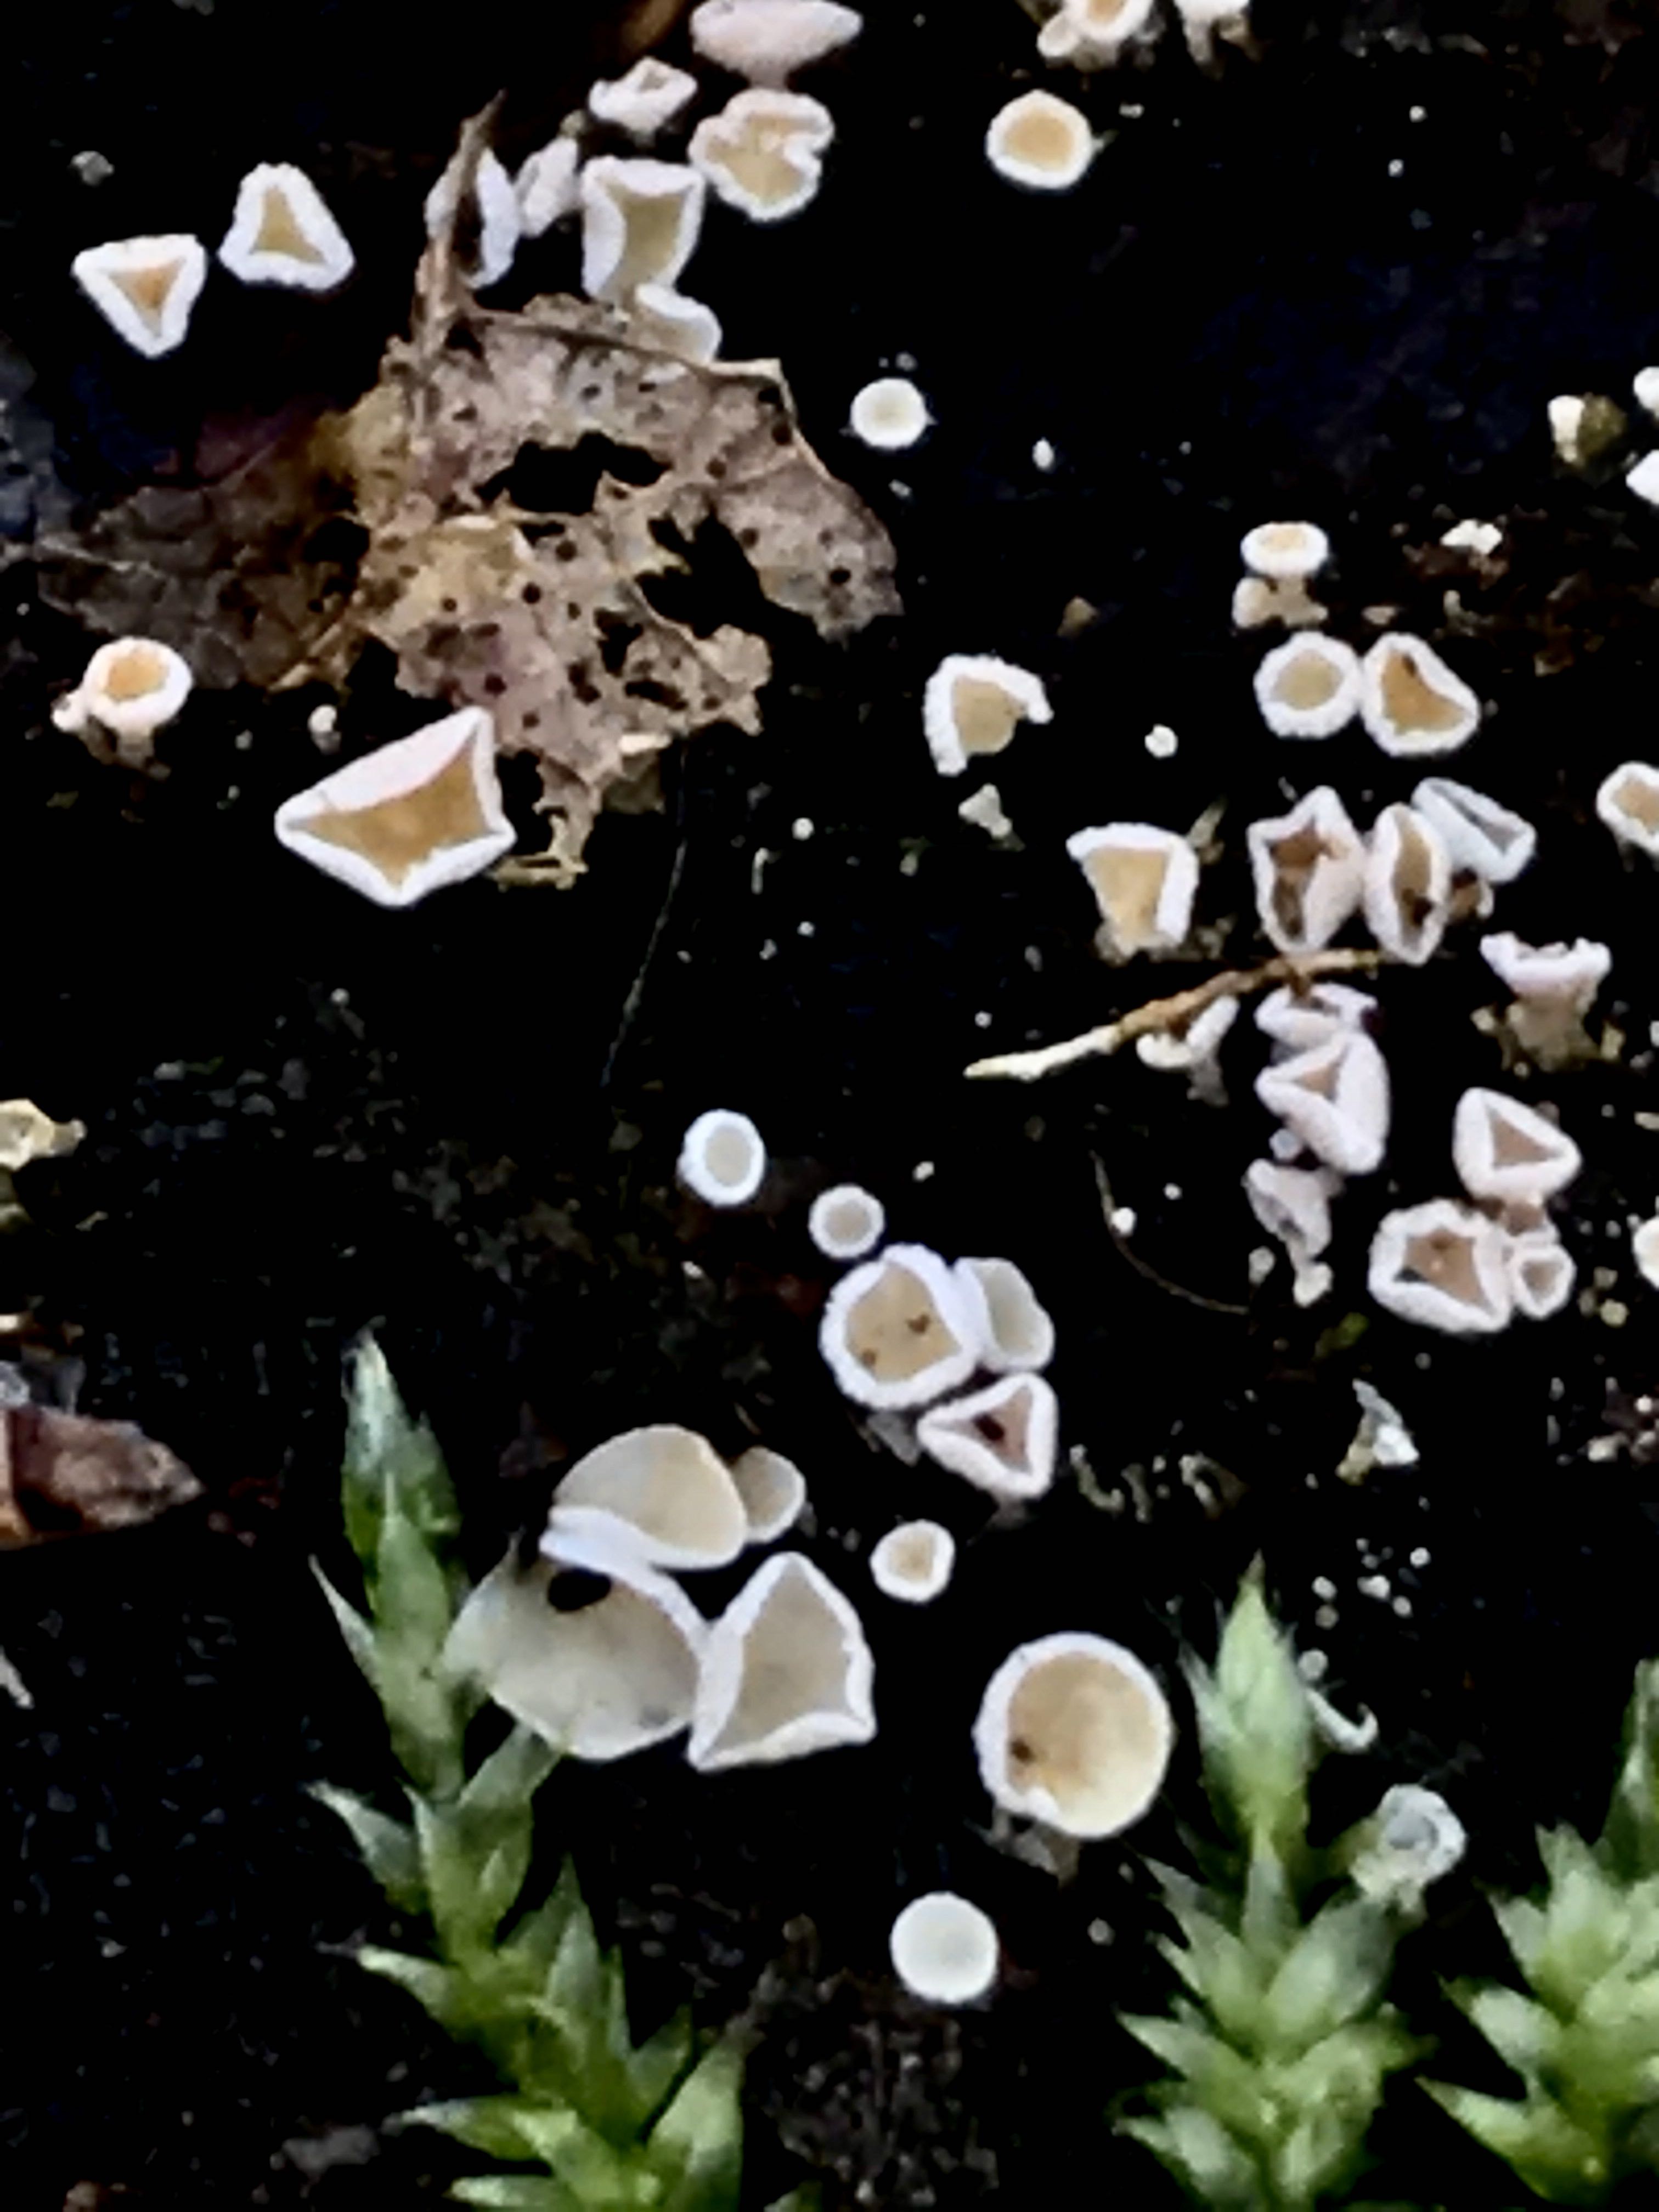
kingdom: Fungi
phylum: Ascomycota
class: Leotiomycetes
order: Helotiales
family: Lachnaceae
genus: Lachnum
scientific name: Lachnum
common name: frynseskive
